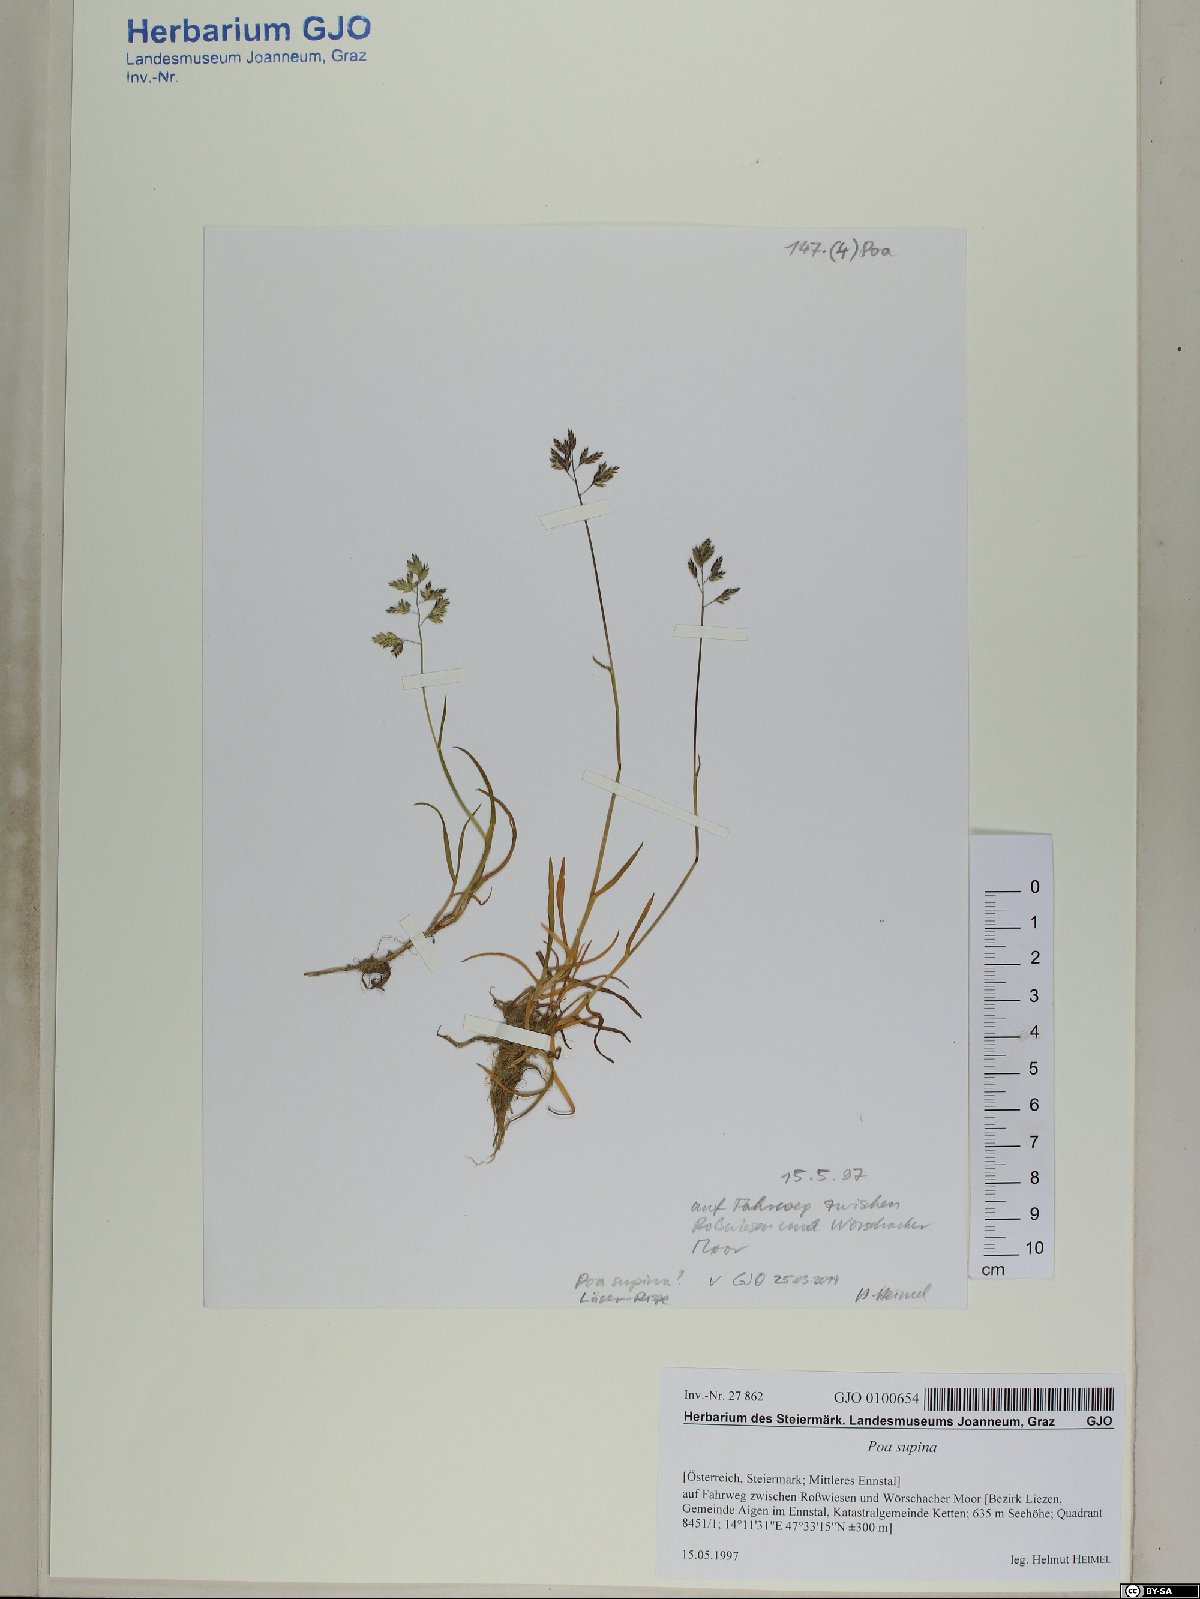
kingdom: Plantae
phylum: Tracheophyta
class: Liliopsida
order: Poales
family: Poaceae
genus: Poa
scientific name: Poa supina
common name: Supina bluegrass
